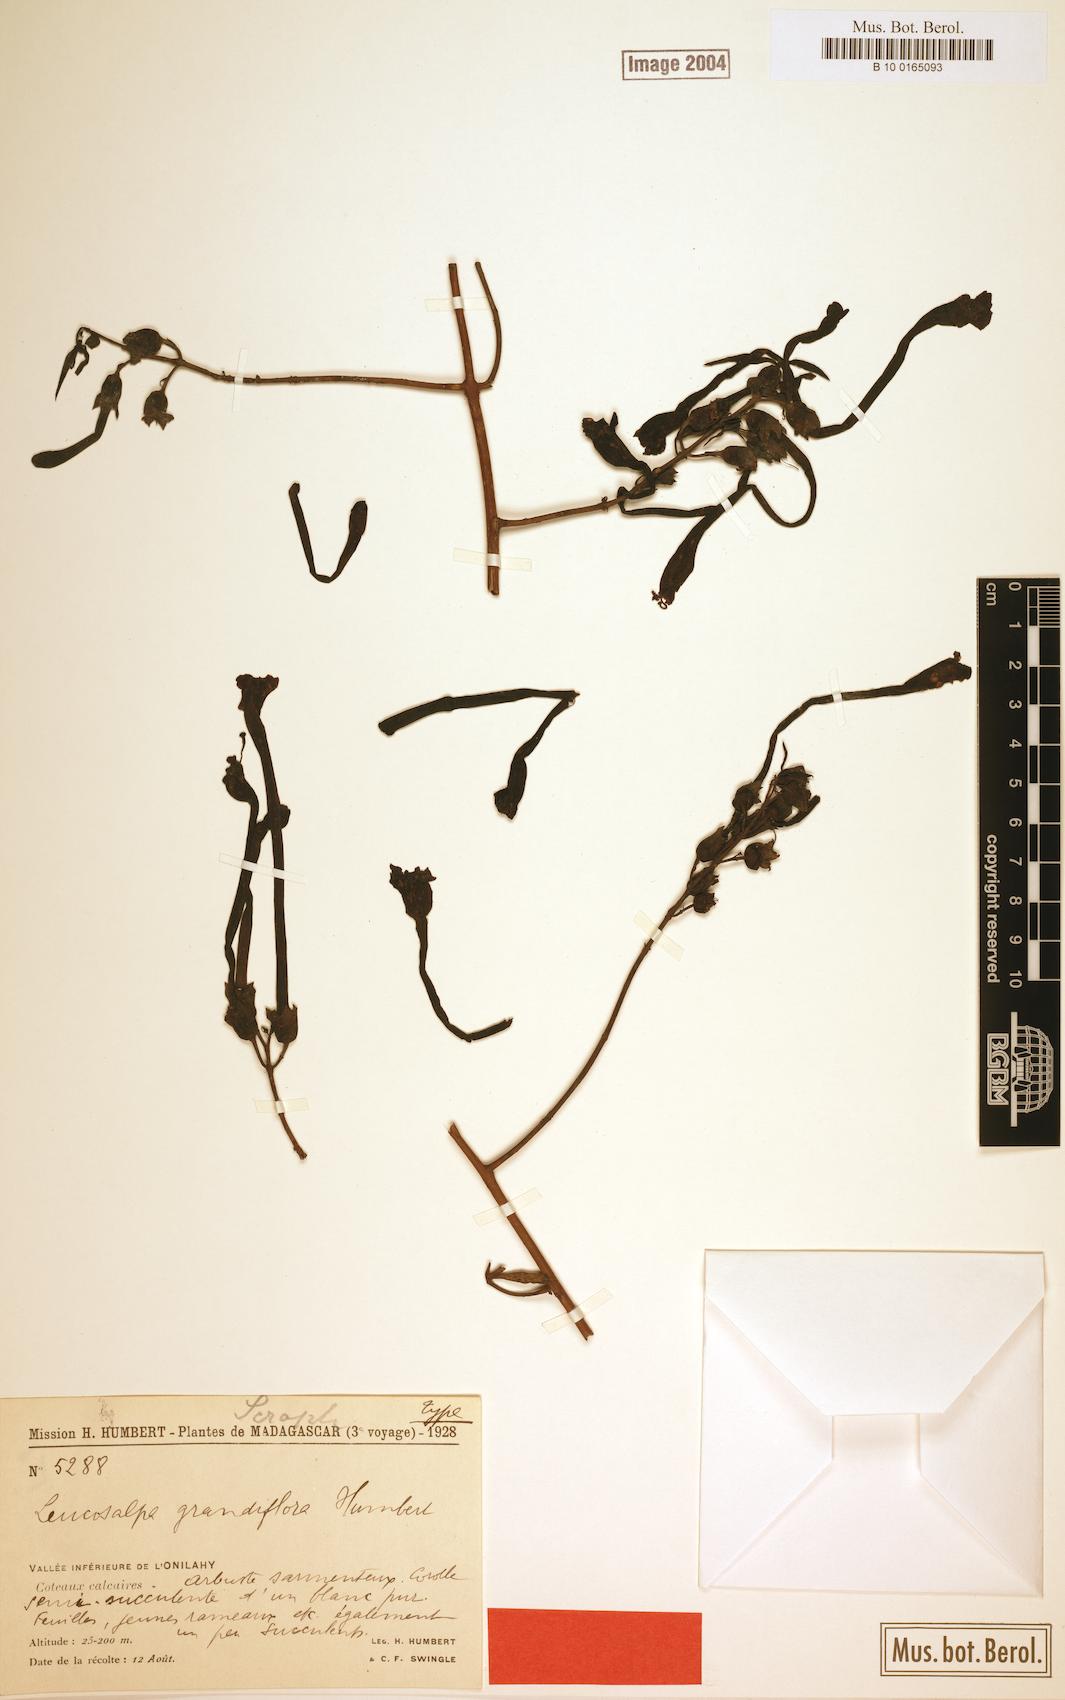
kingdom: Plantae
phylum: Tracheophyta
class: Magnoliopsida
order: Lamiales
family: Orobanchaceae
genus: Leucosalpa
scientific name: Leucosalpa grandiflora
